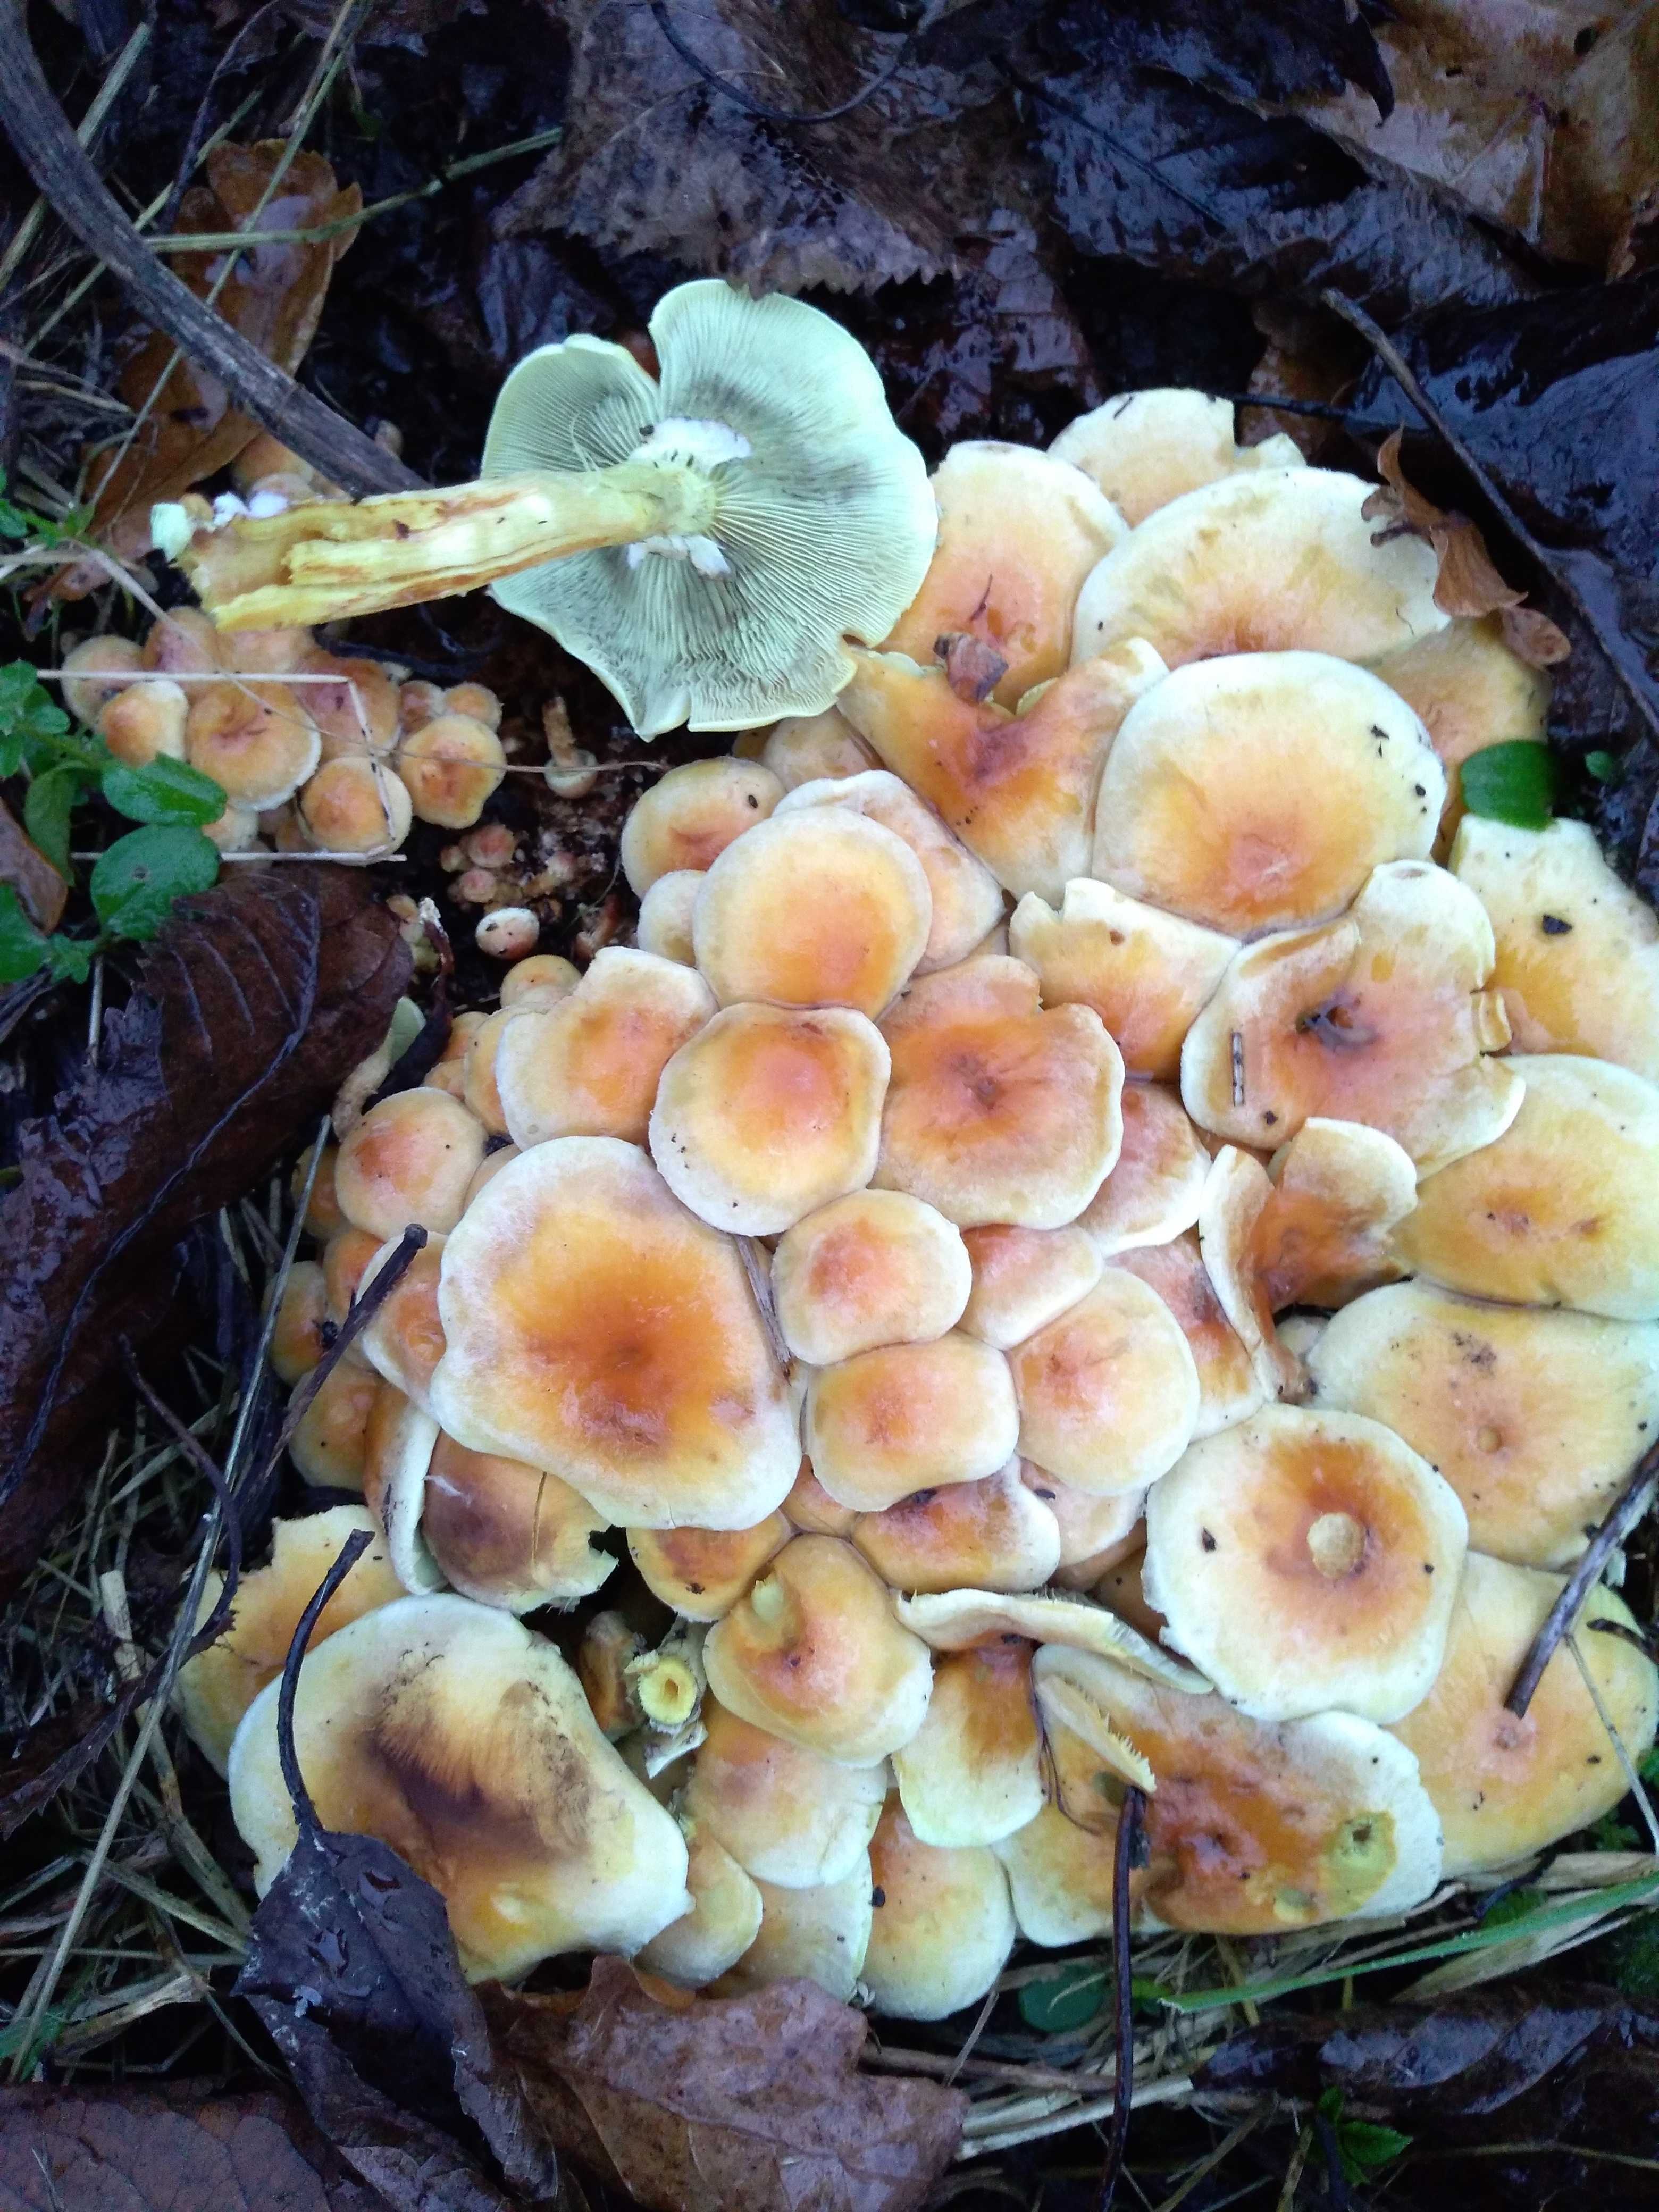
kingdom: Fungi
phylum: Basidiomycota
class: Agaricomycetes
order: Agaricales
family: Strophariaceae
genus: Hypholoma
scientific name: Hypholoma fasciculare
